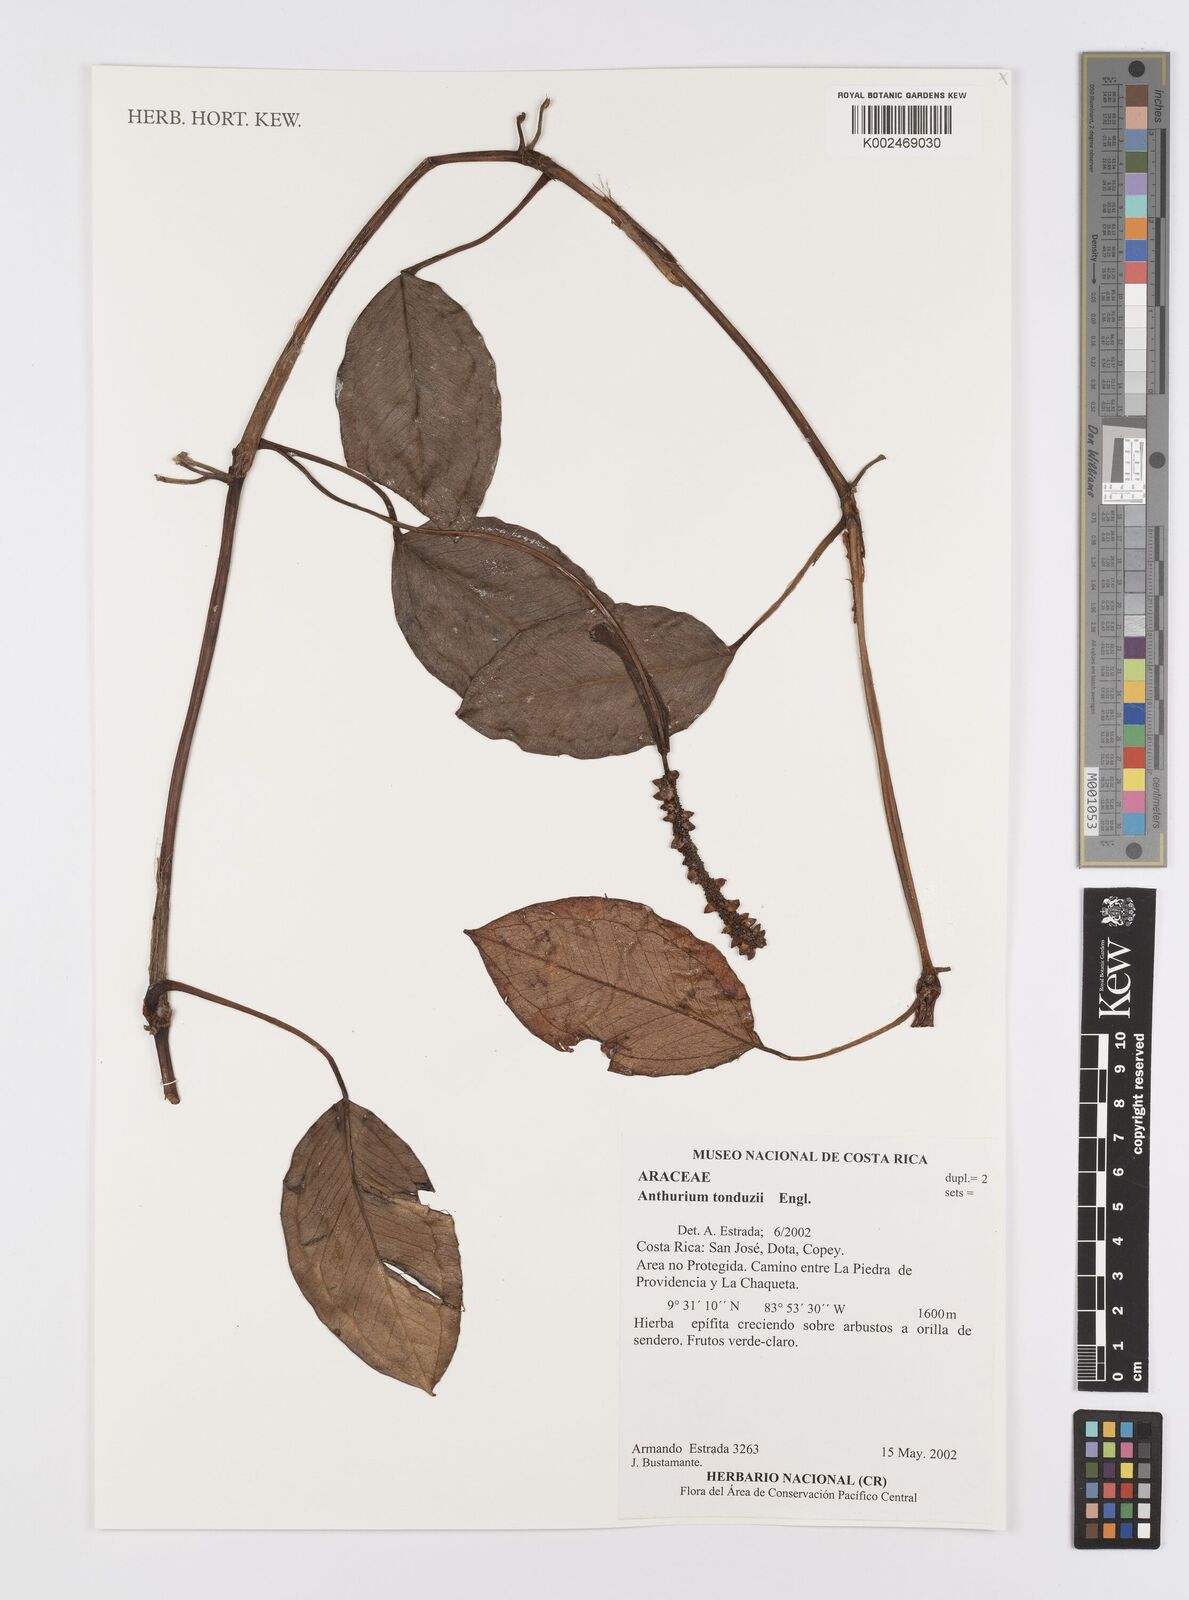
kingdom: Plantae
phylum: Tracheophyta
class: Liliopsida
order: Alismatales
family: Araceae
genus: Anthurium
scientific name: Anthurium tonduzii
